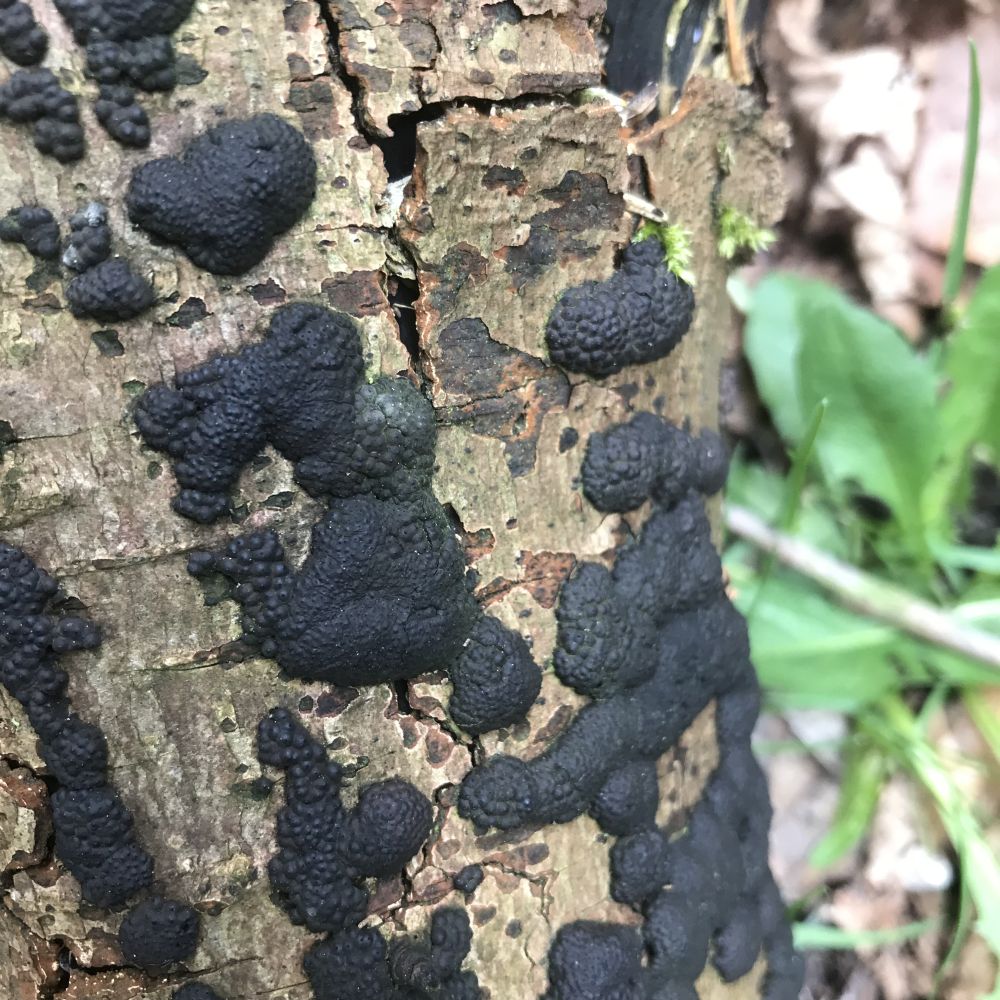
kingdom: Fungi
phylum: Ascomycota
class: Sordariomycetes
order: Xylariales
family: Hypoxylaceae
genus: Jackrogersella
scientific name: Jackrogersella multiformis
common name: foranderlig kulbær
